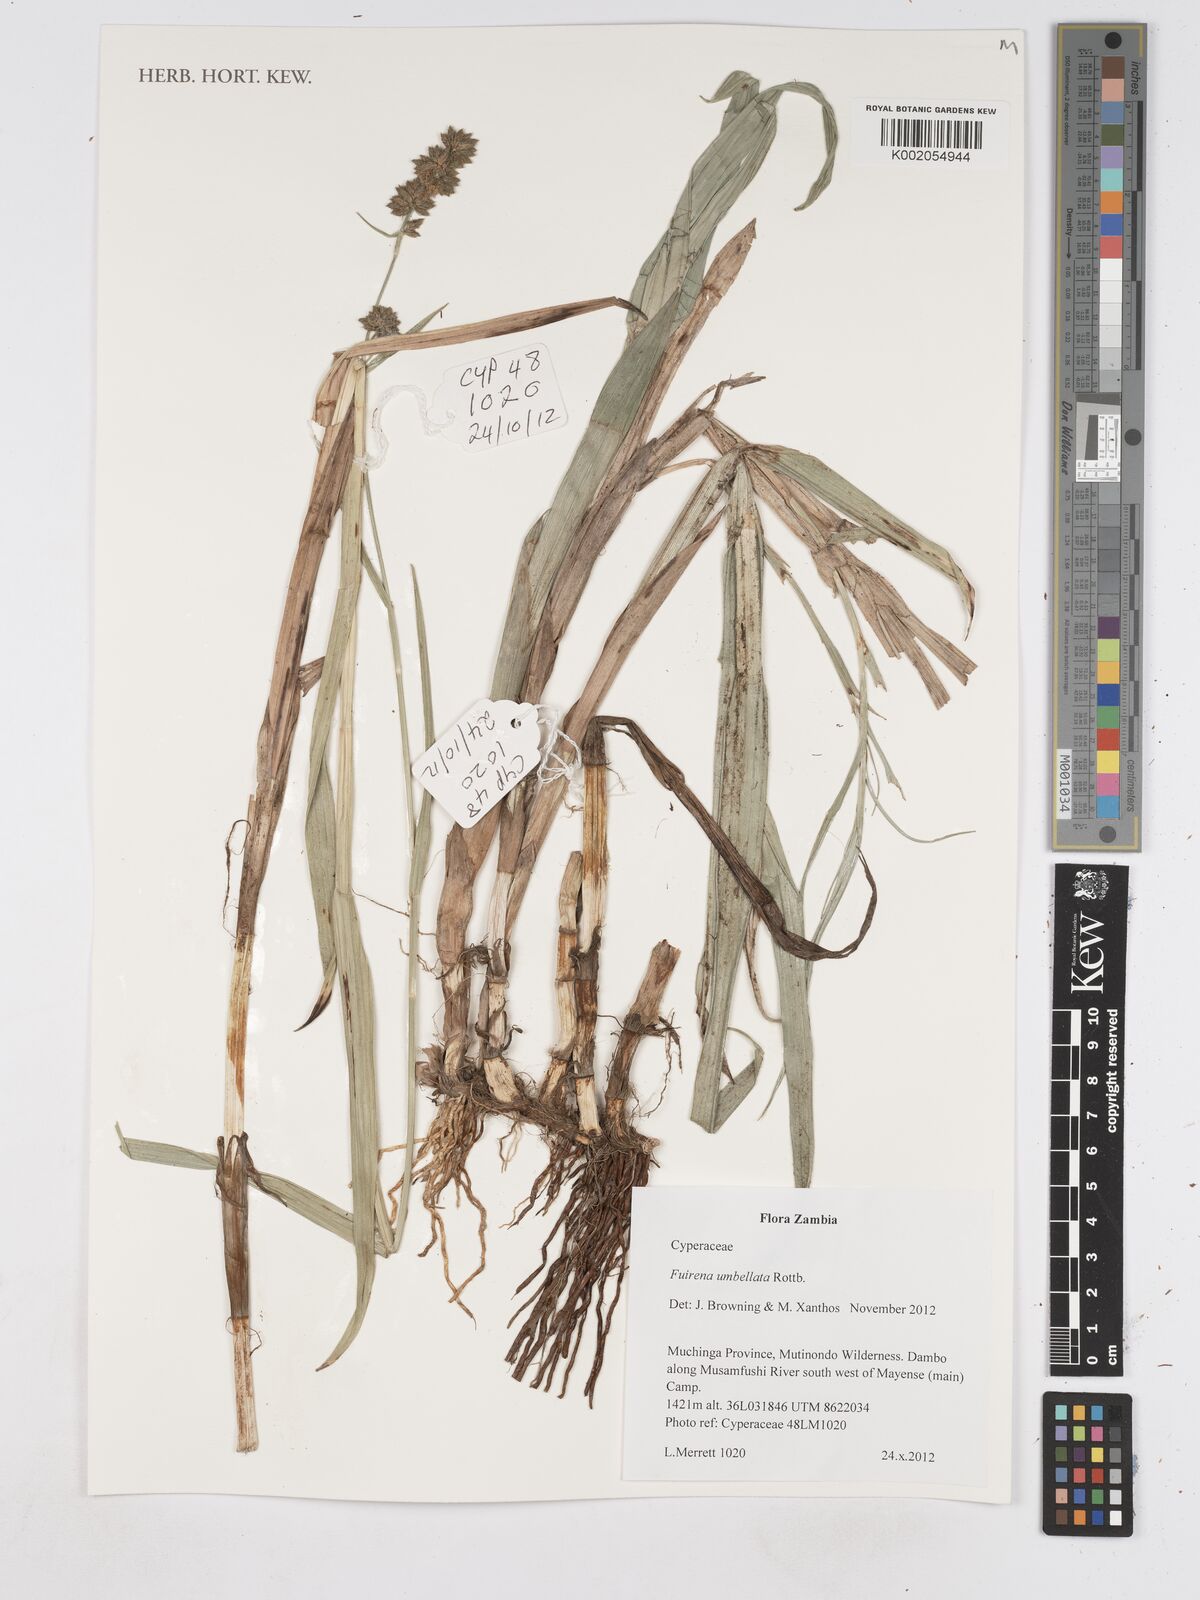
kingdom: Plantae
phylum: Tracheophyta
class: Liliopsida
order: Poales
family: Cyperaceae
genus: Fuirena
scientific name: Fuirena umbellata
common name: Yefen
